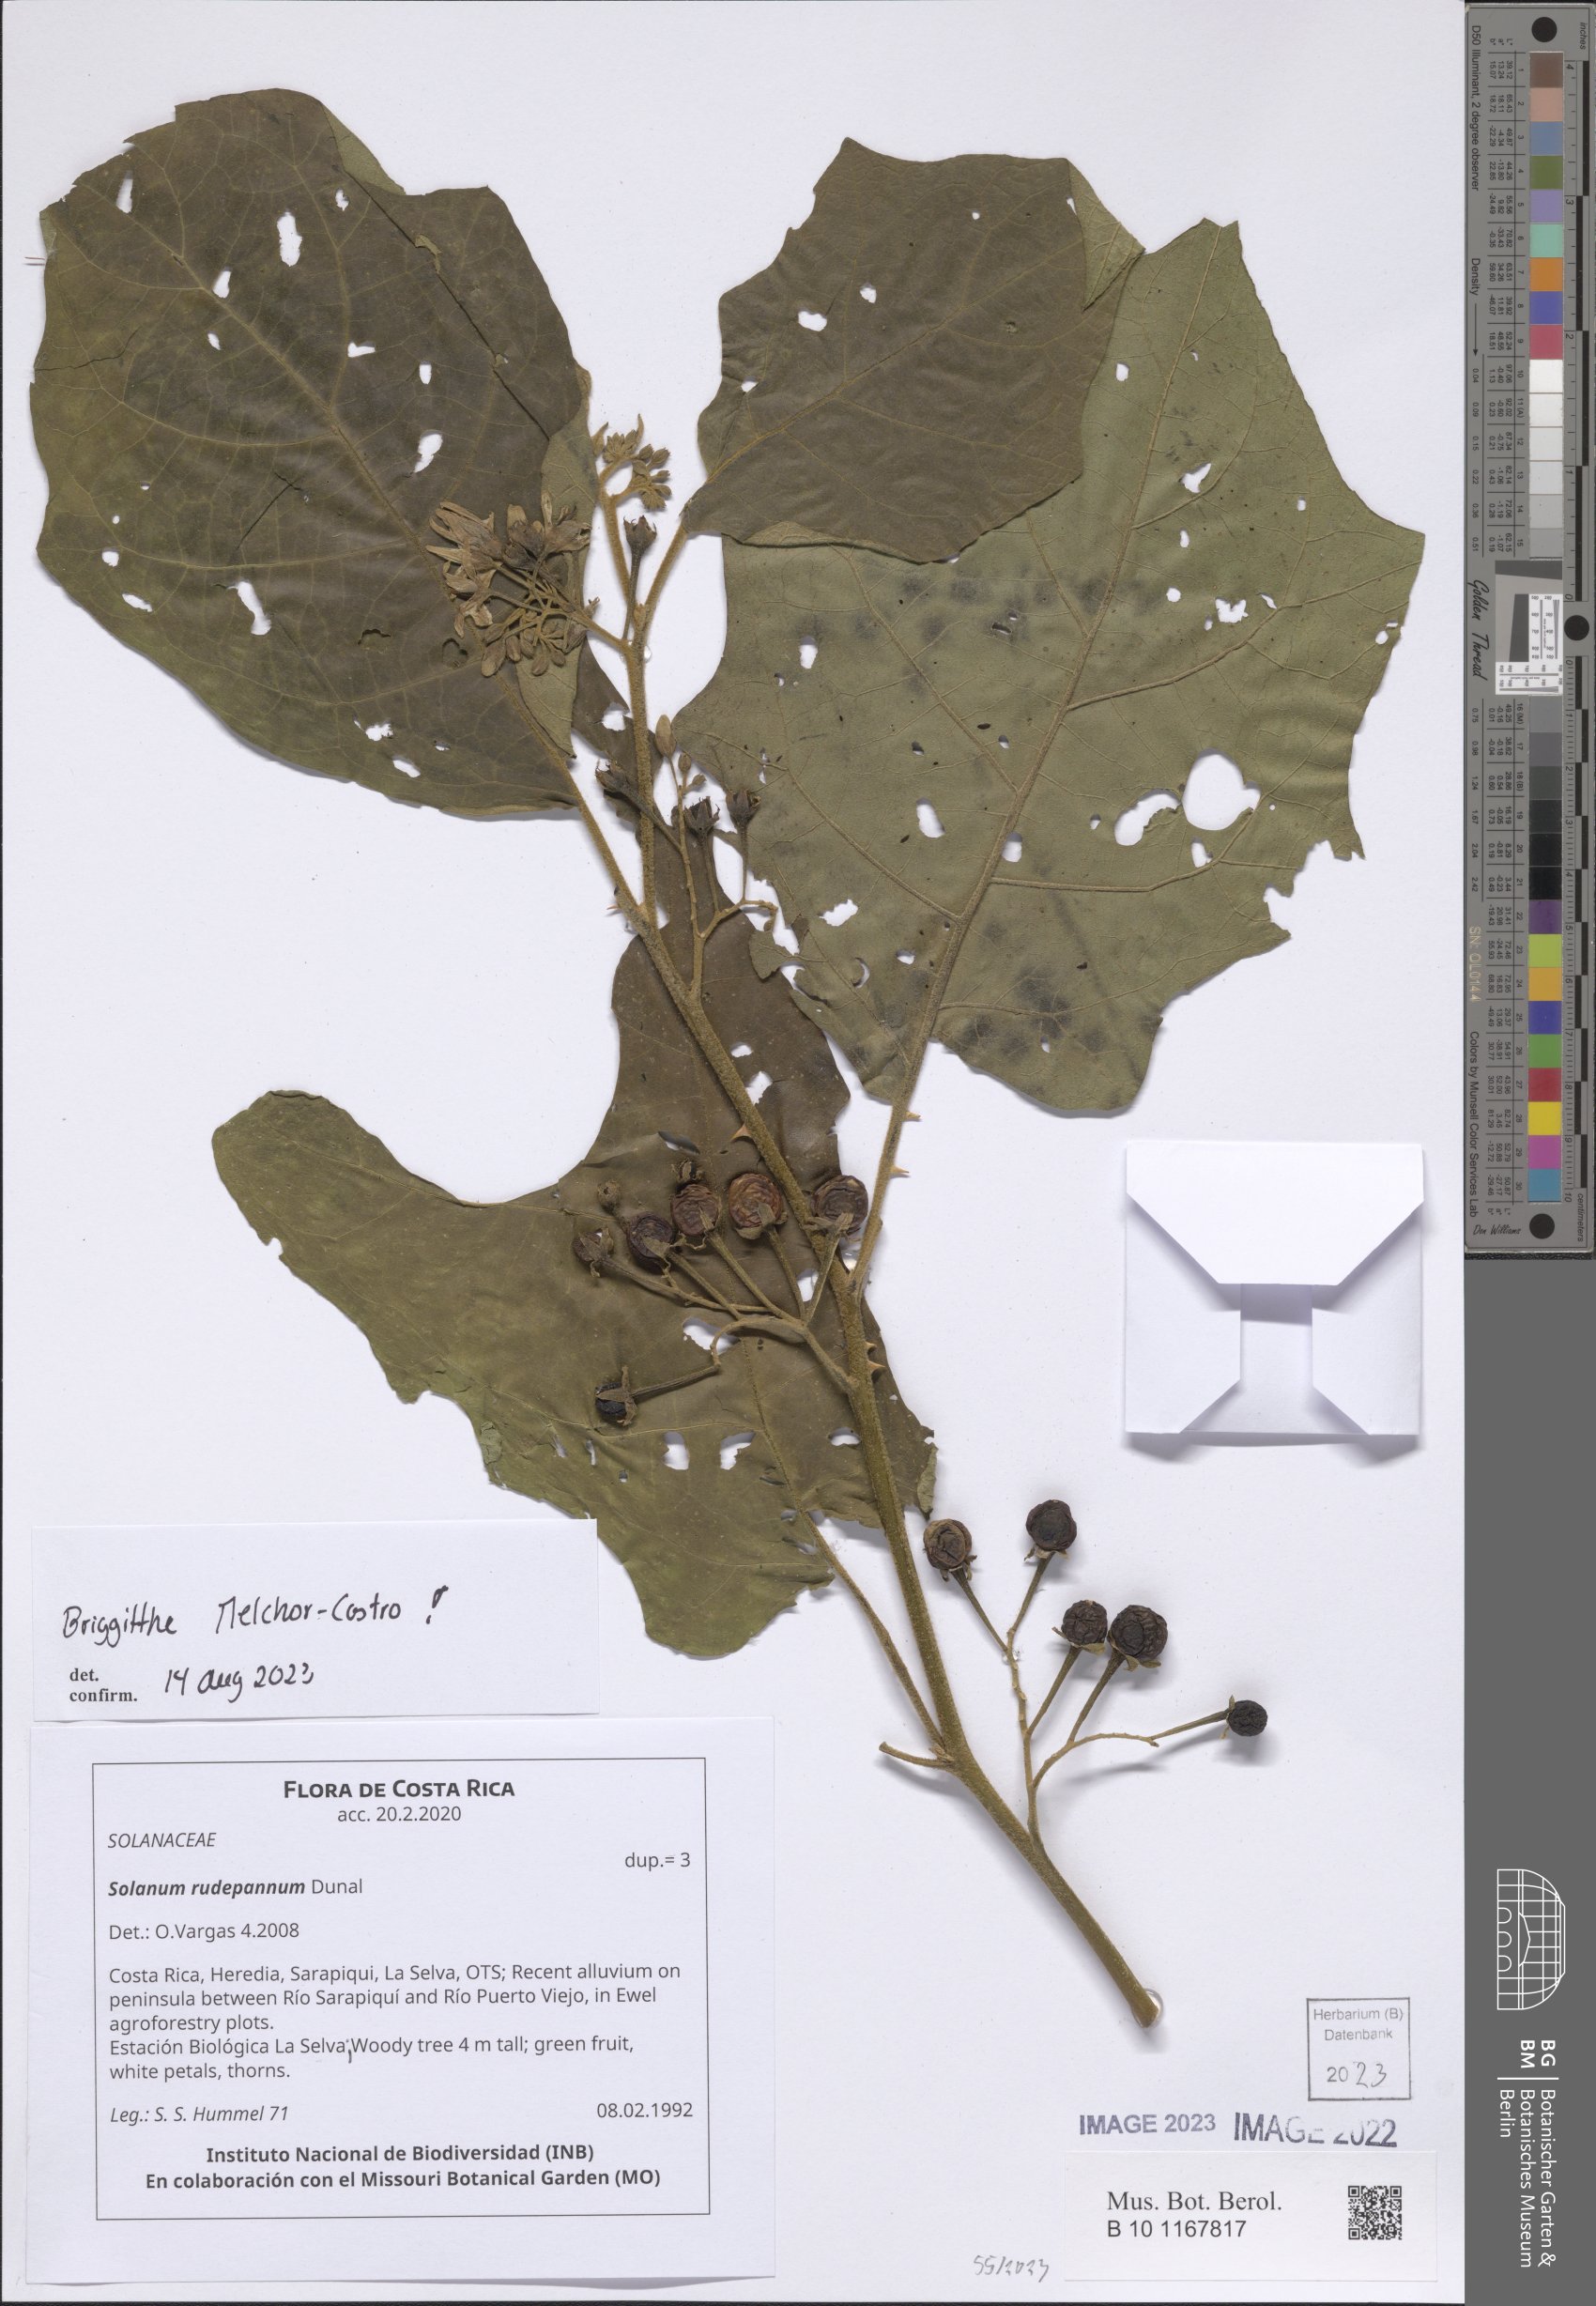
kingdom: Plantae
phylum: Tracheophyta
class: Magnoliopsida
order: Solanales
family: Solanaceae
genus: Solanum
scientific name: Solanum rude-pannum
